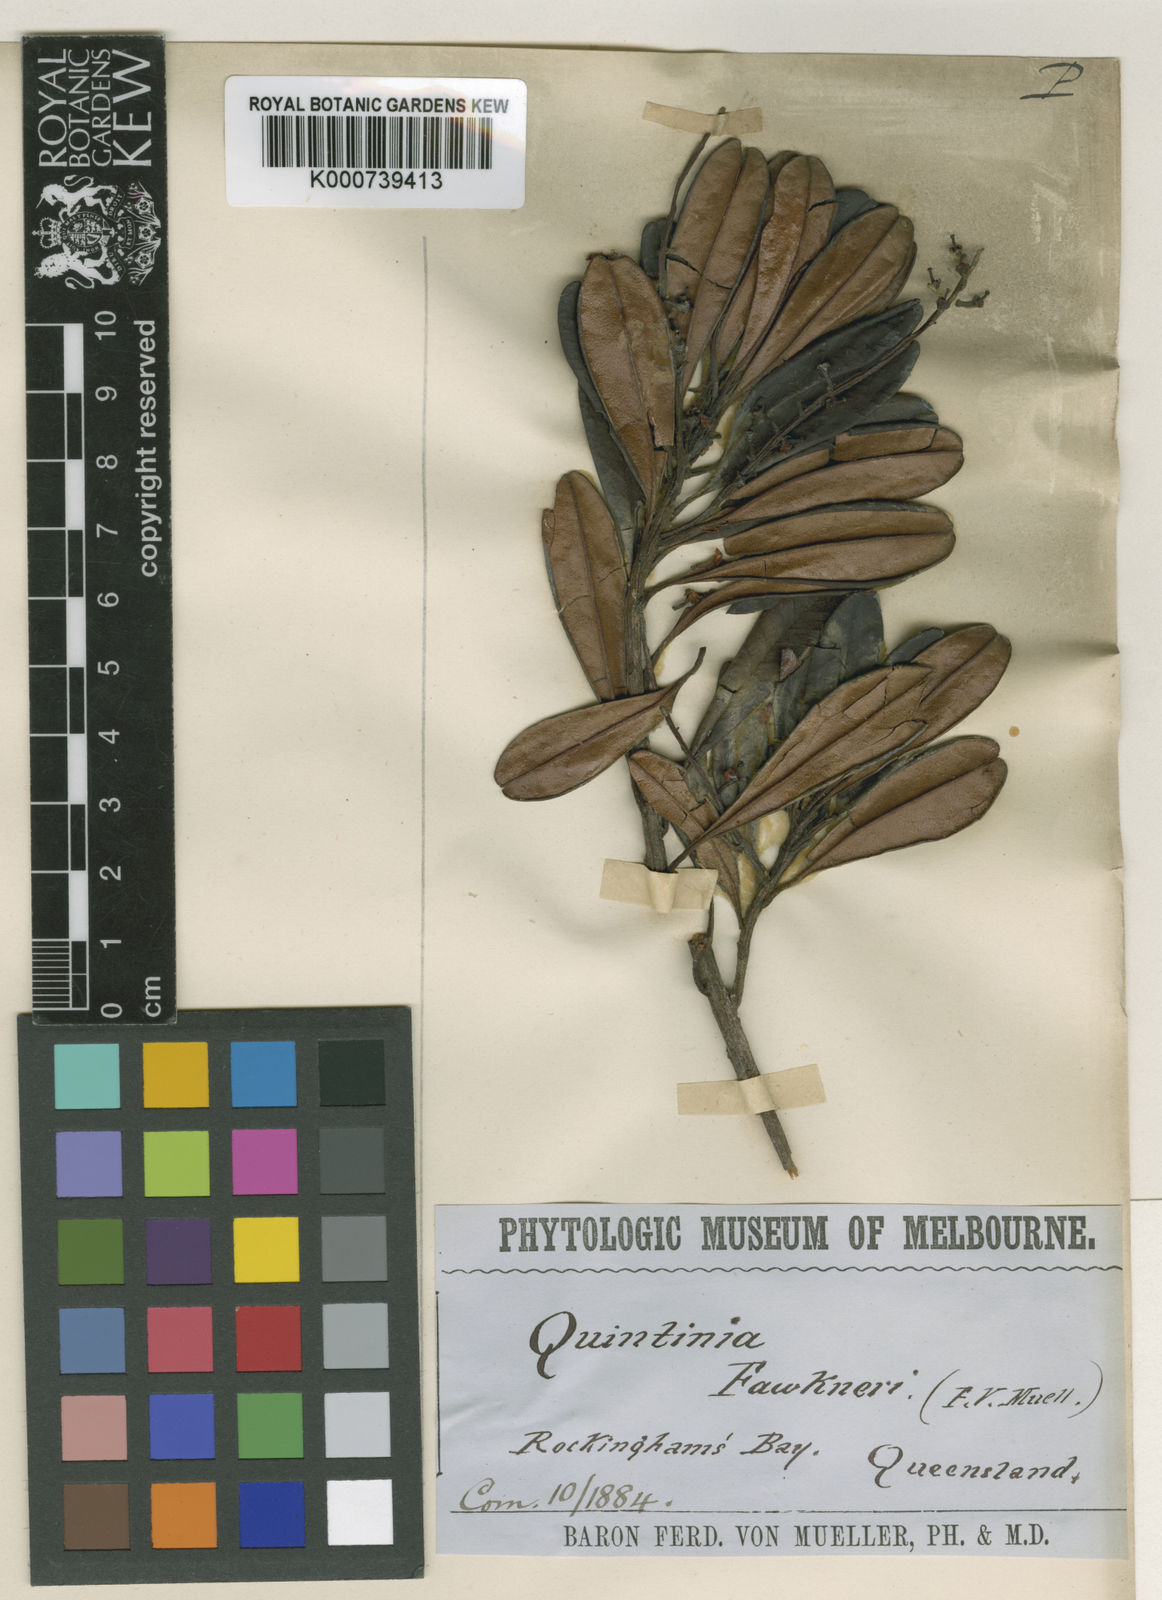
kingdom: Plantae
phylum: Tracheophyta
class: Magnoliopsida
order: Paracryphiales
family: Paracryphiaceae
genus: Quintinia
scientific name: Quintinia fawkneri
